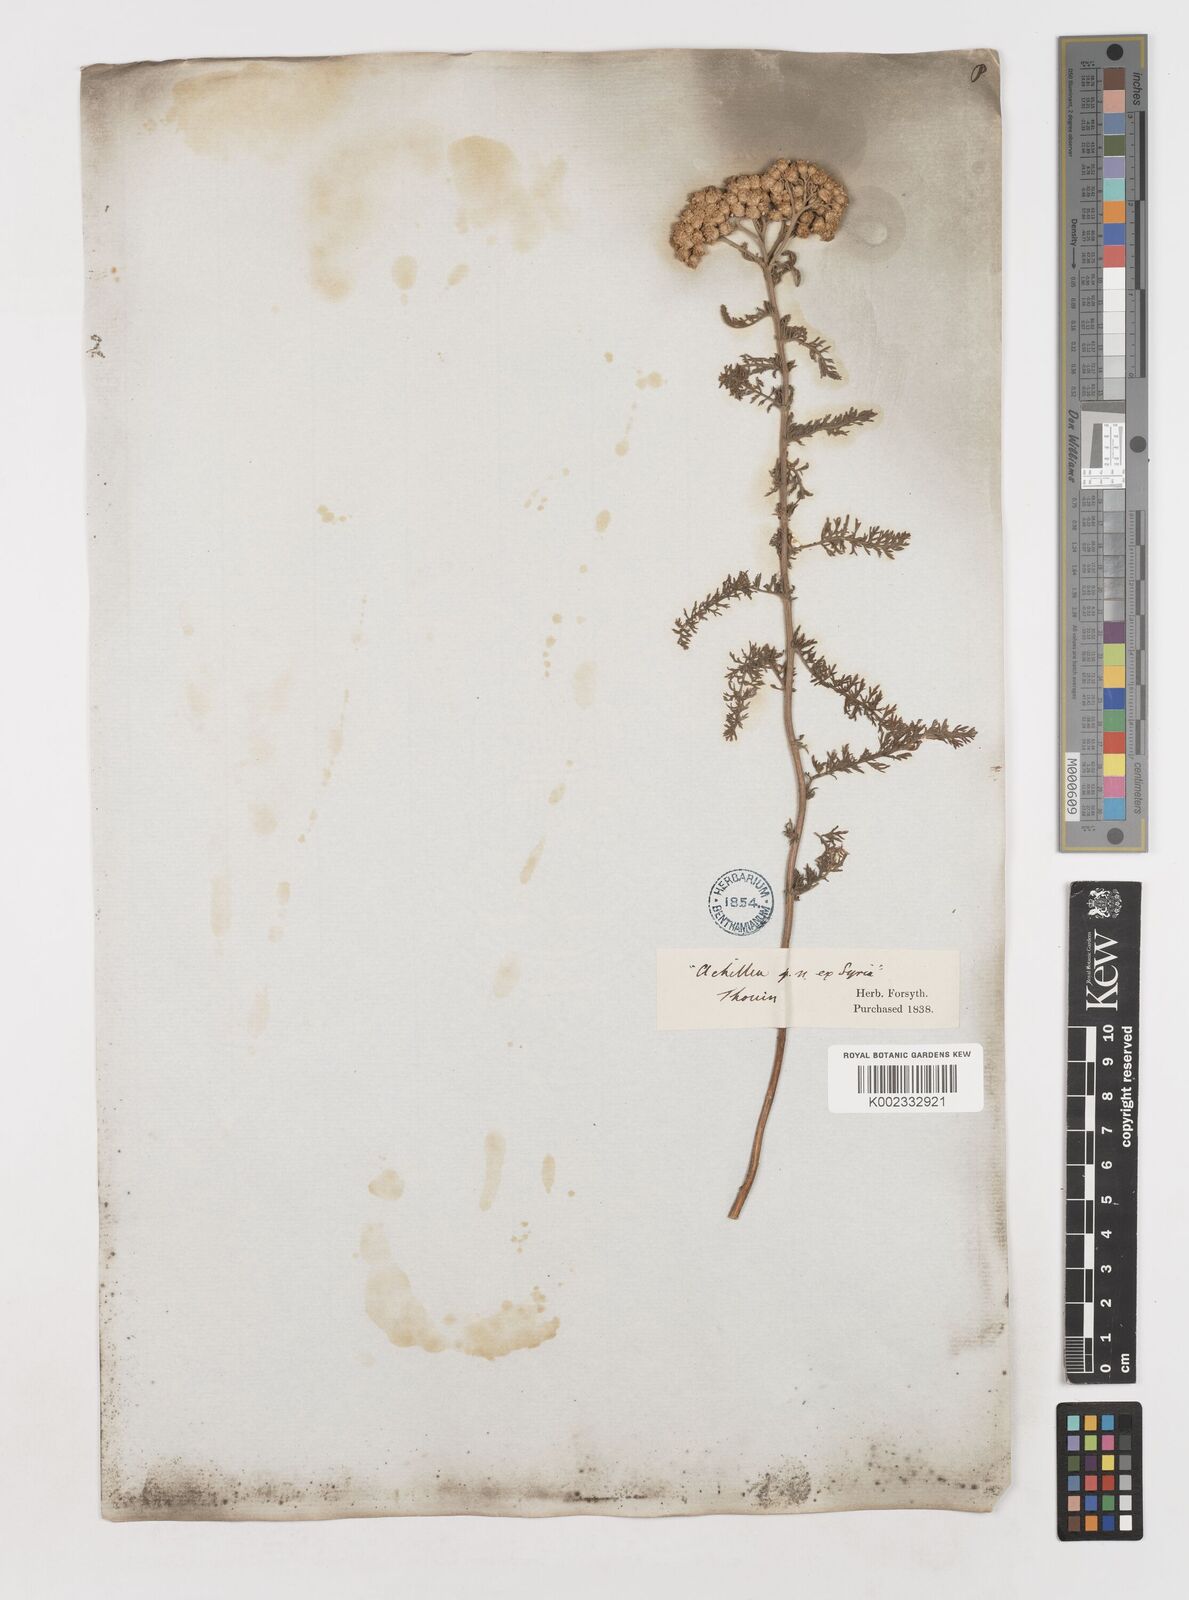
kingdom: Plantae
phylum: Tracheophyta
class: Magnoliopsida
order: Asterales
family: Asteraceae
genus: Achillea
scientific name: Achillea arabica
